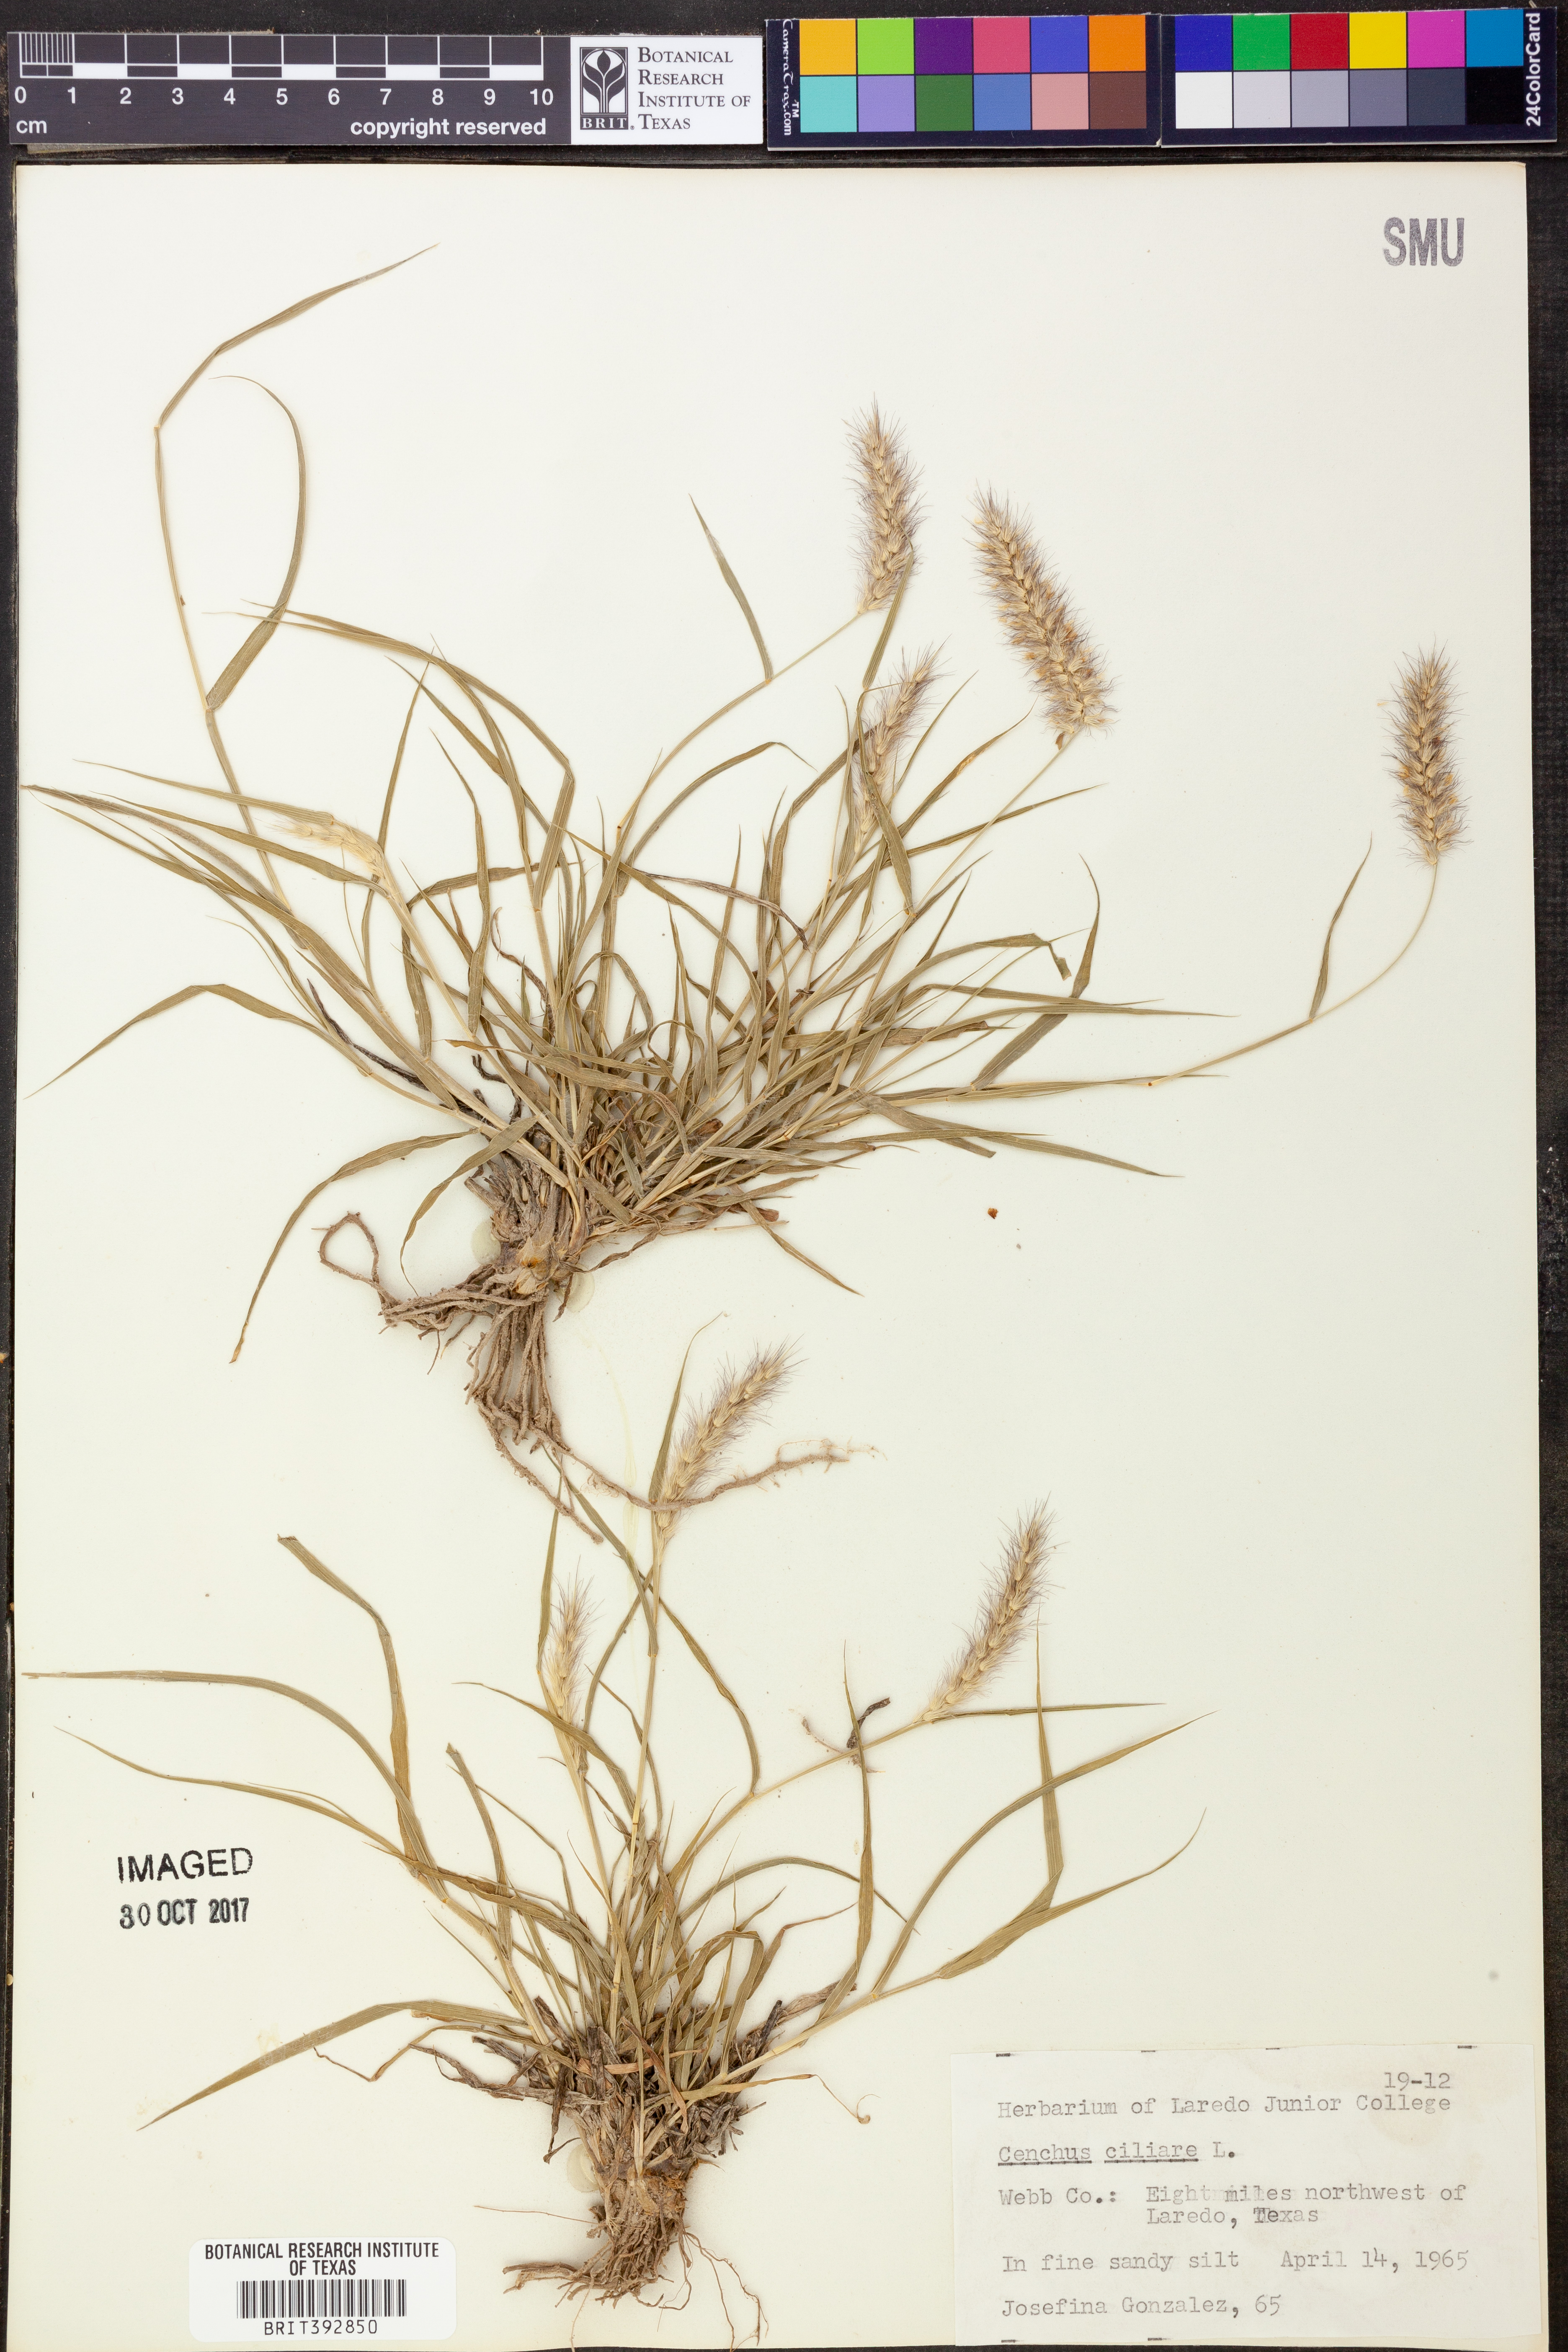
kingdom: Plantae
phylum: Tracheophyta
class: Liliopsida
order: Poales
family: Poaceae
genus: Cenchrus
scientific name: Cenchrus ciliaris
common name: Buffelgrass
